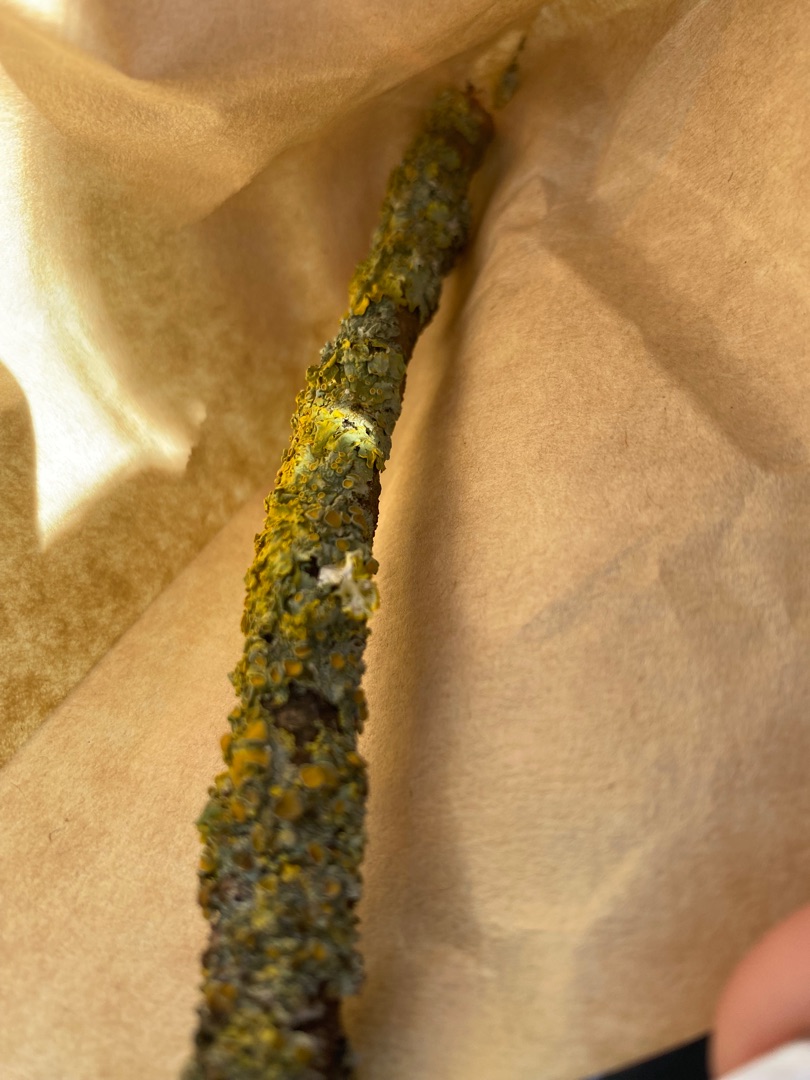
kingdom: Fungi
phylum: Ascomycota
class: Lecanoromycetes
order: Teloschistales
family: Teloschistaceae
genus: Xanthoria
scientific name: Xanthoria parietina
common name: Almindelig væggelav
